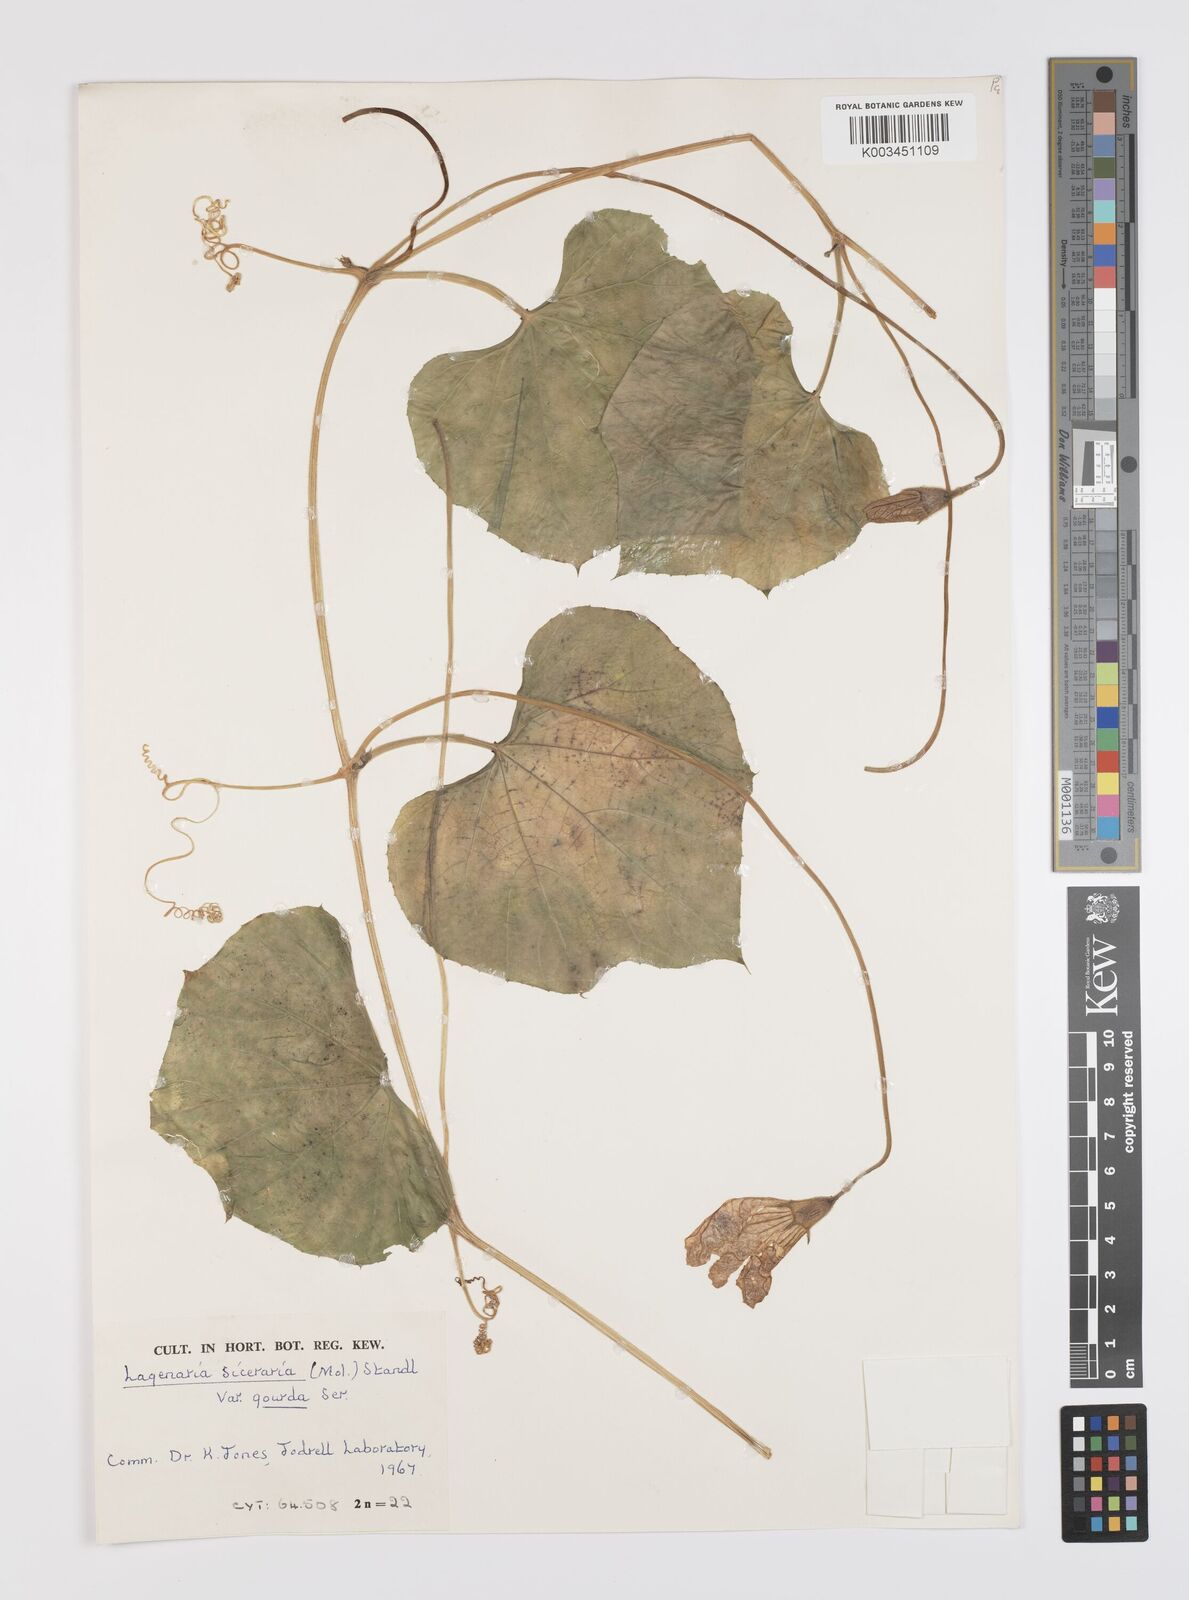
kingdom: Plantae
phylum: Tracheophyta
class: Magnoliopsida
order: Cucurbitales
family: Cucurbitaceae
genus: Lagenaria
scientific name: Lagenaria siceraria
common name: Bottle gourd
